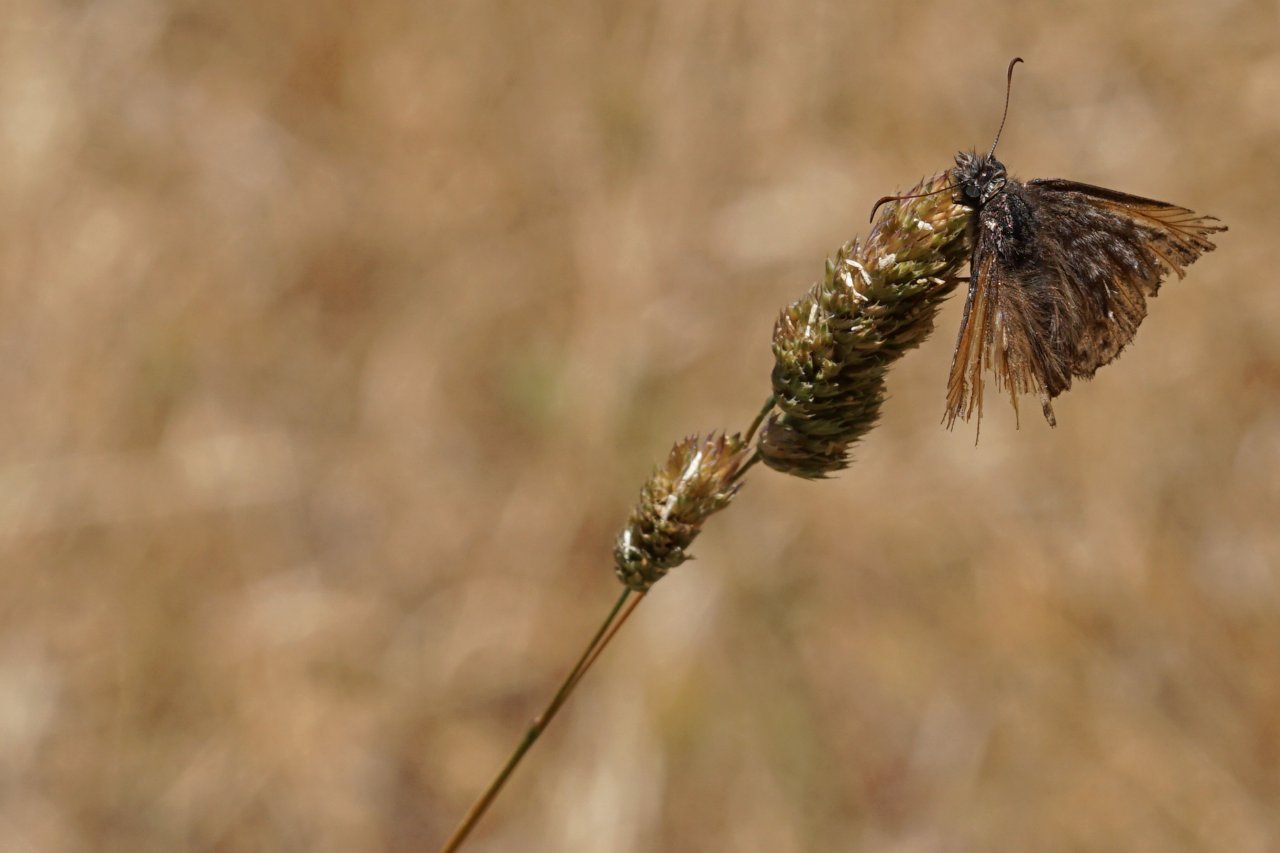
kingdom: Animalia
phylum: Arthropoda
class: Insecta
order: Lepidoptera
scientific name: Lepidoptera
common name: Butterflies
